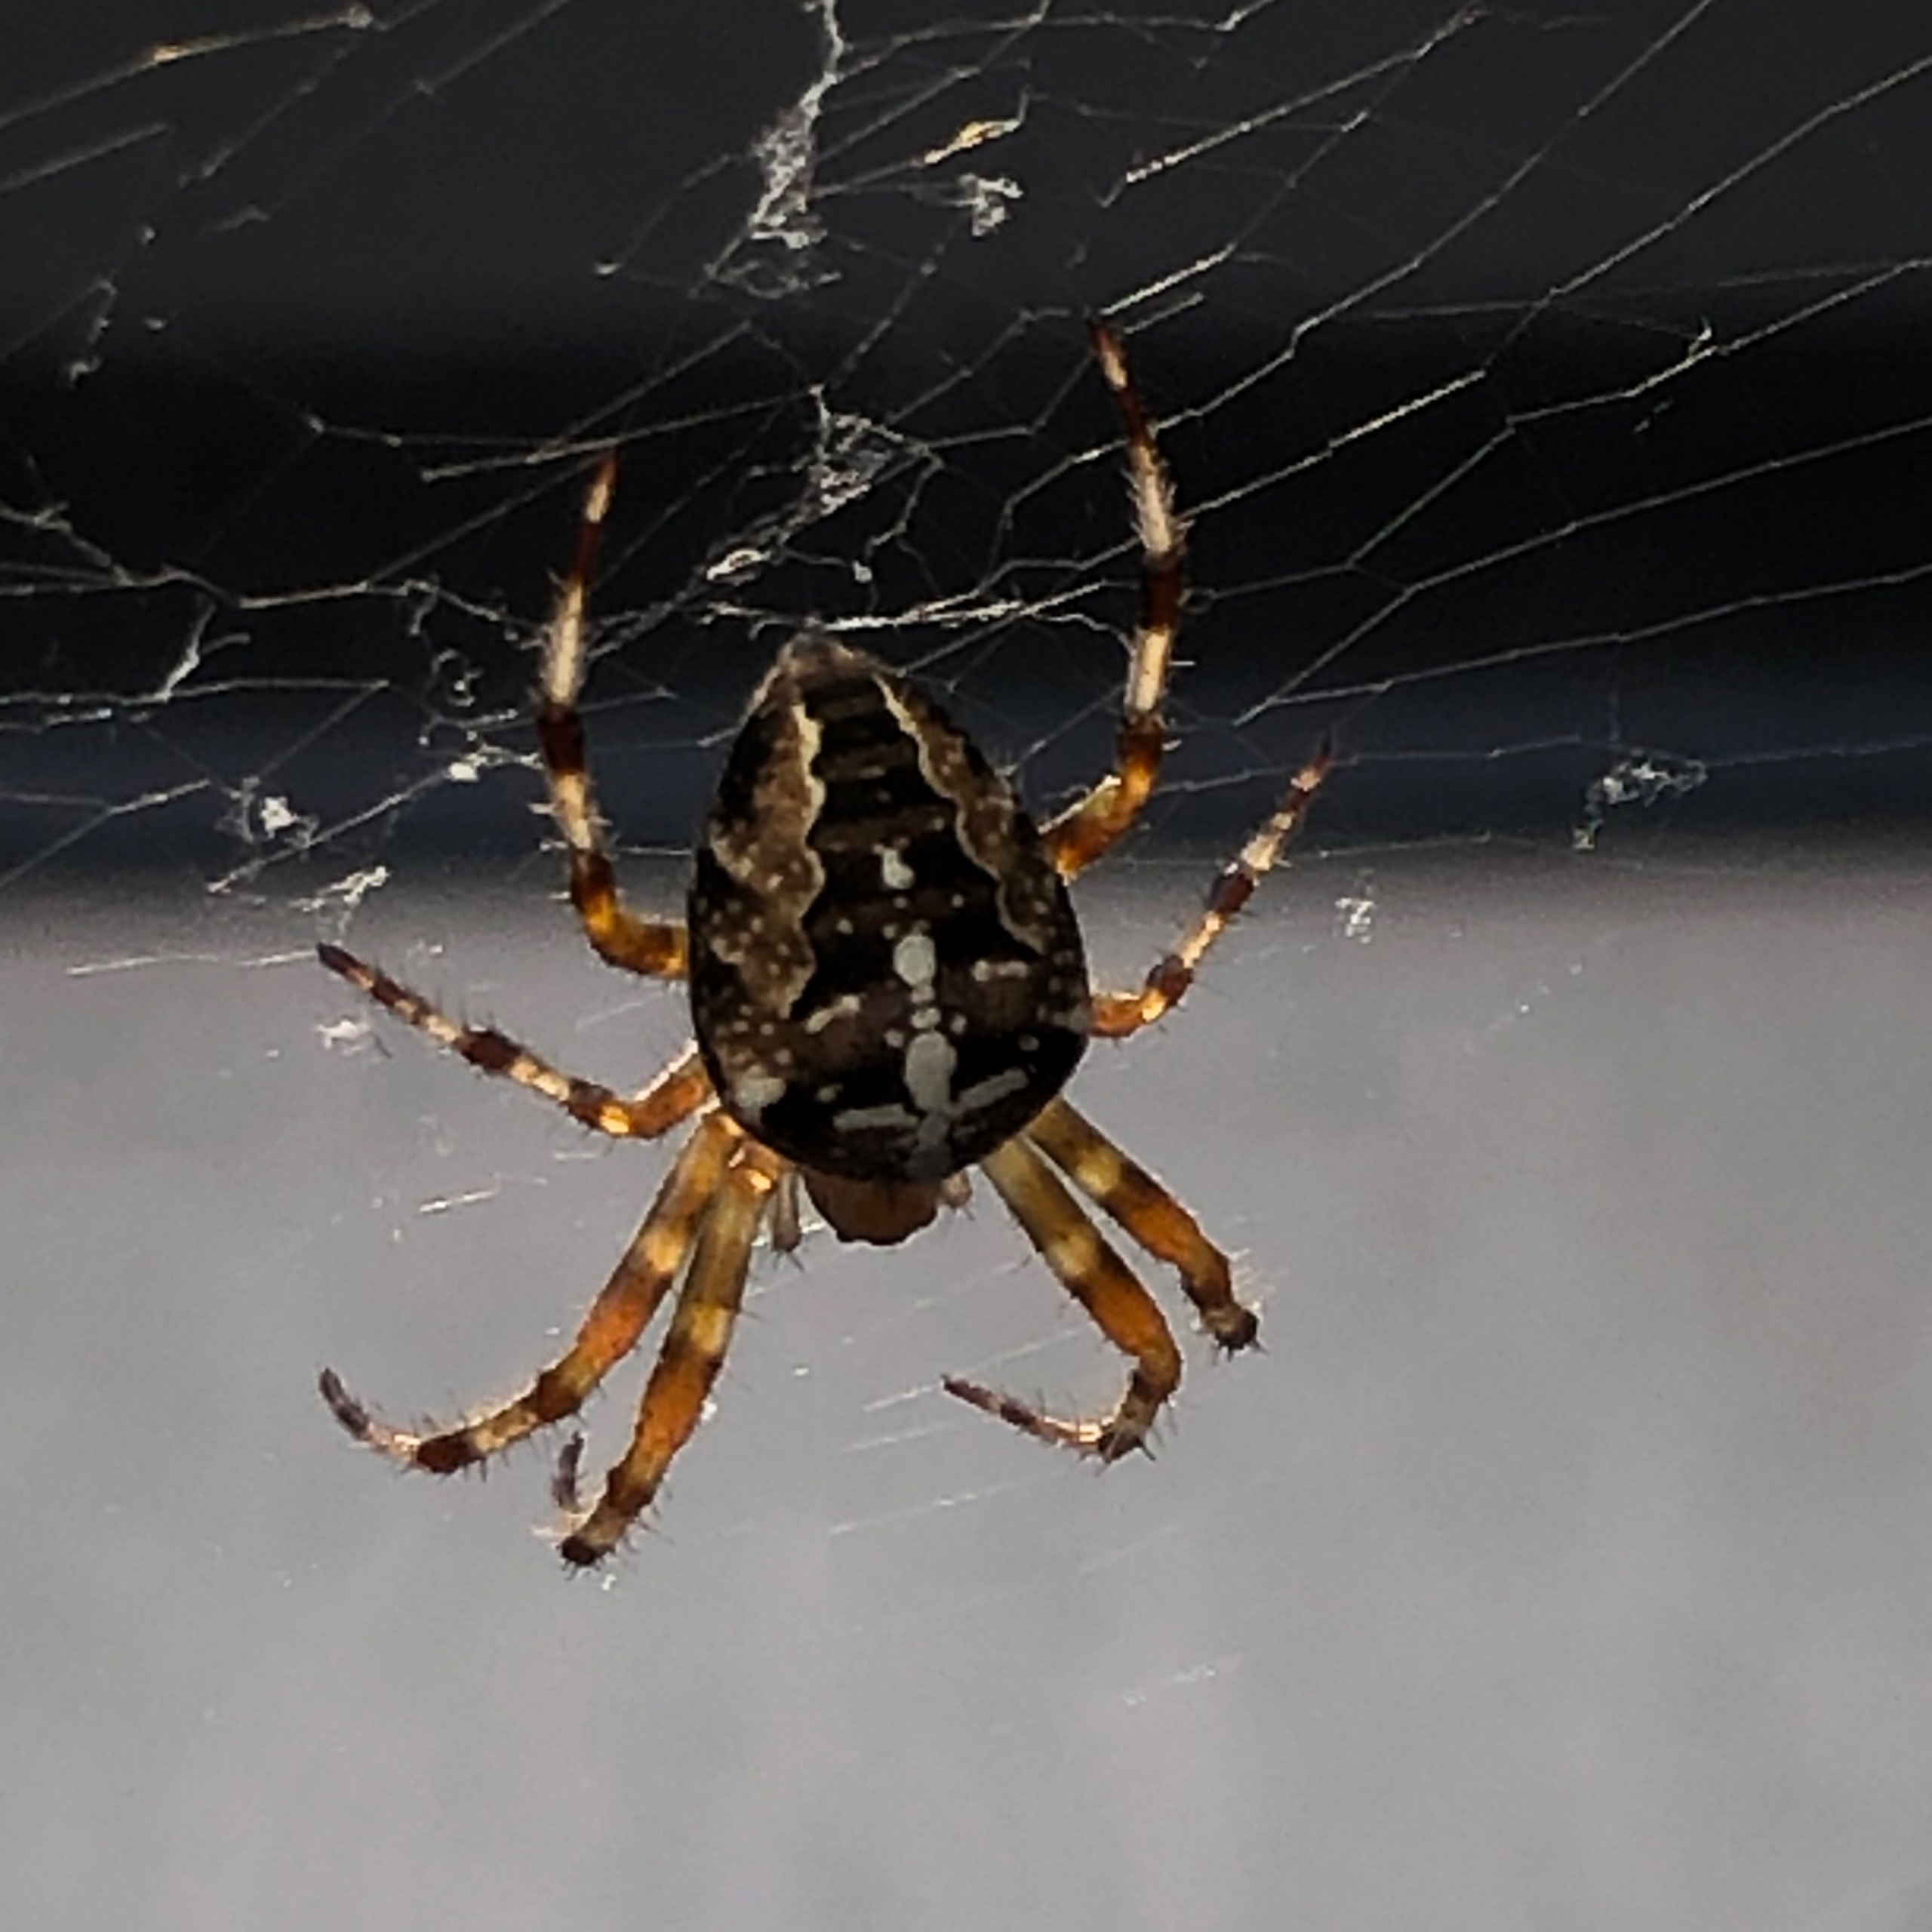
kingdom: Animalia
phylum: Arthropoda
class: Arachnida
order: Araneae
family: Araneidae
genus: Araneus
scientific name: Araneus diadematus
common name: Korsedderkop
